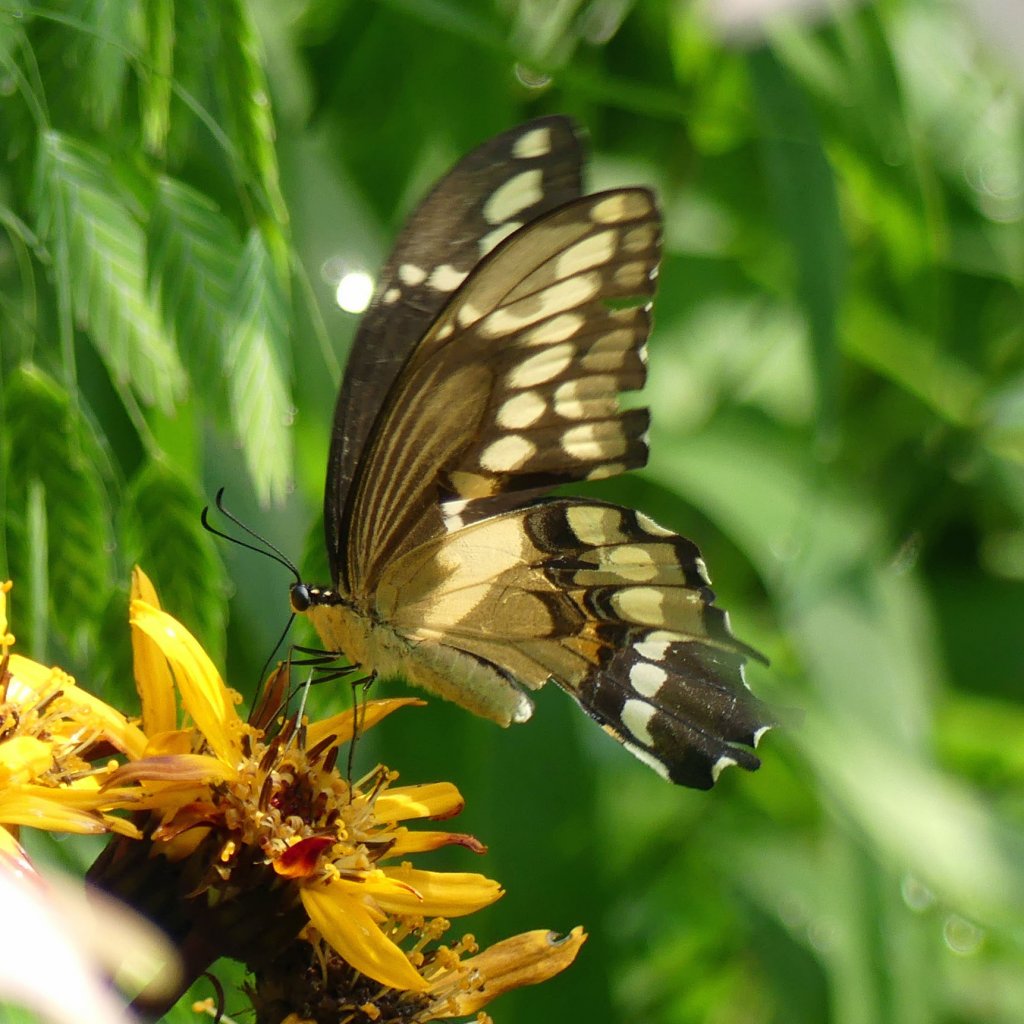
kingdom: Animalia
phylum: Arthropoda
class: Insecta
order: Lepidoptera
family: Papilionidae
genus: Papilio
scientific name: Papilio cresphontes
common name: Eastern Giant Swallowtail
